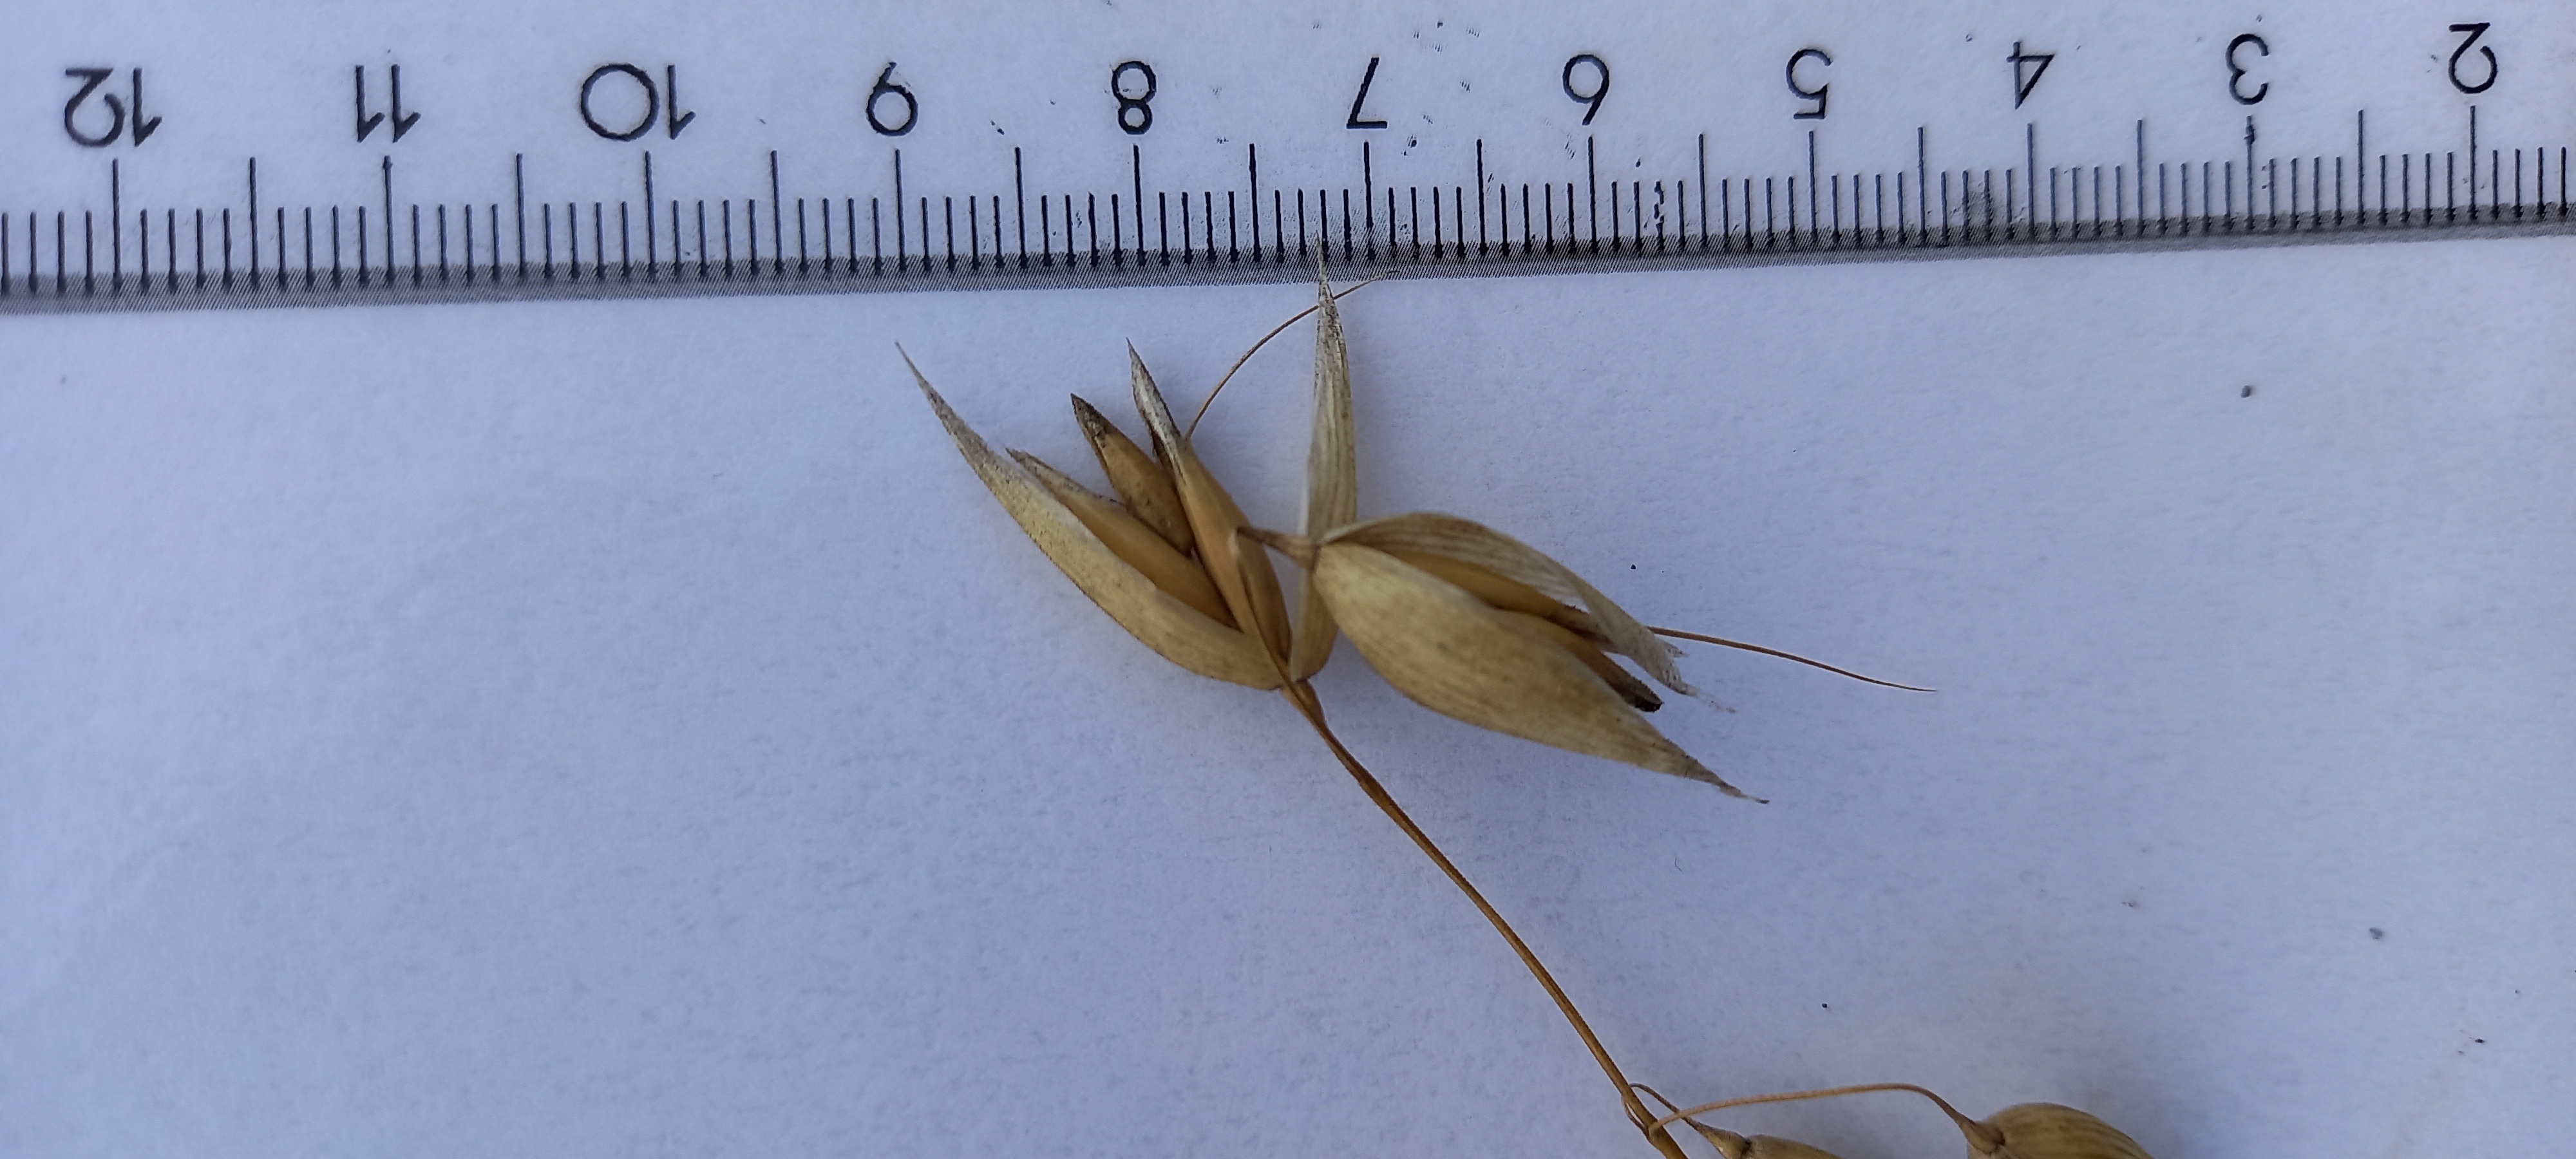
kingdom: Plantae
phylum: Tracheophyta
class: Liliopsida
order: Poales
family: Poaceae
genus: Avena
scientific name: Avena sativa
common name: Oat
